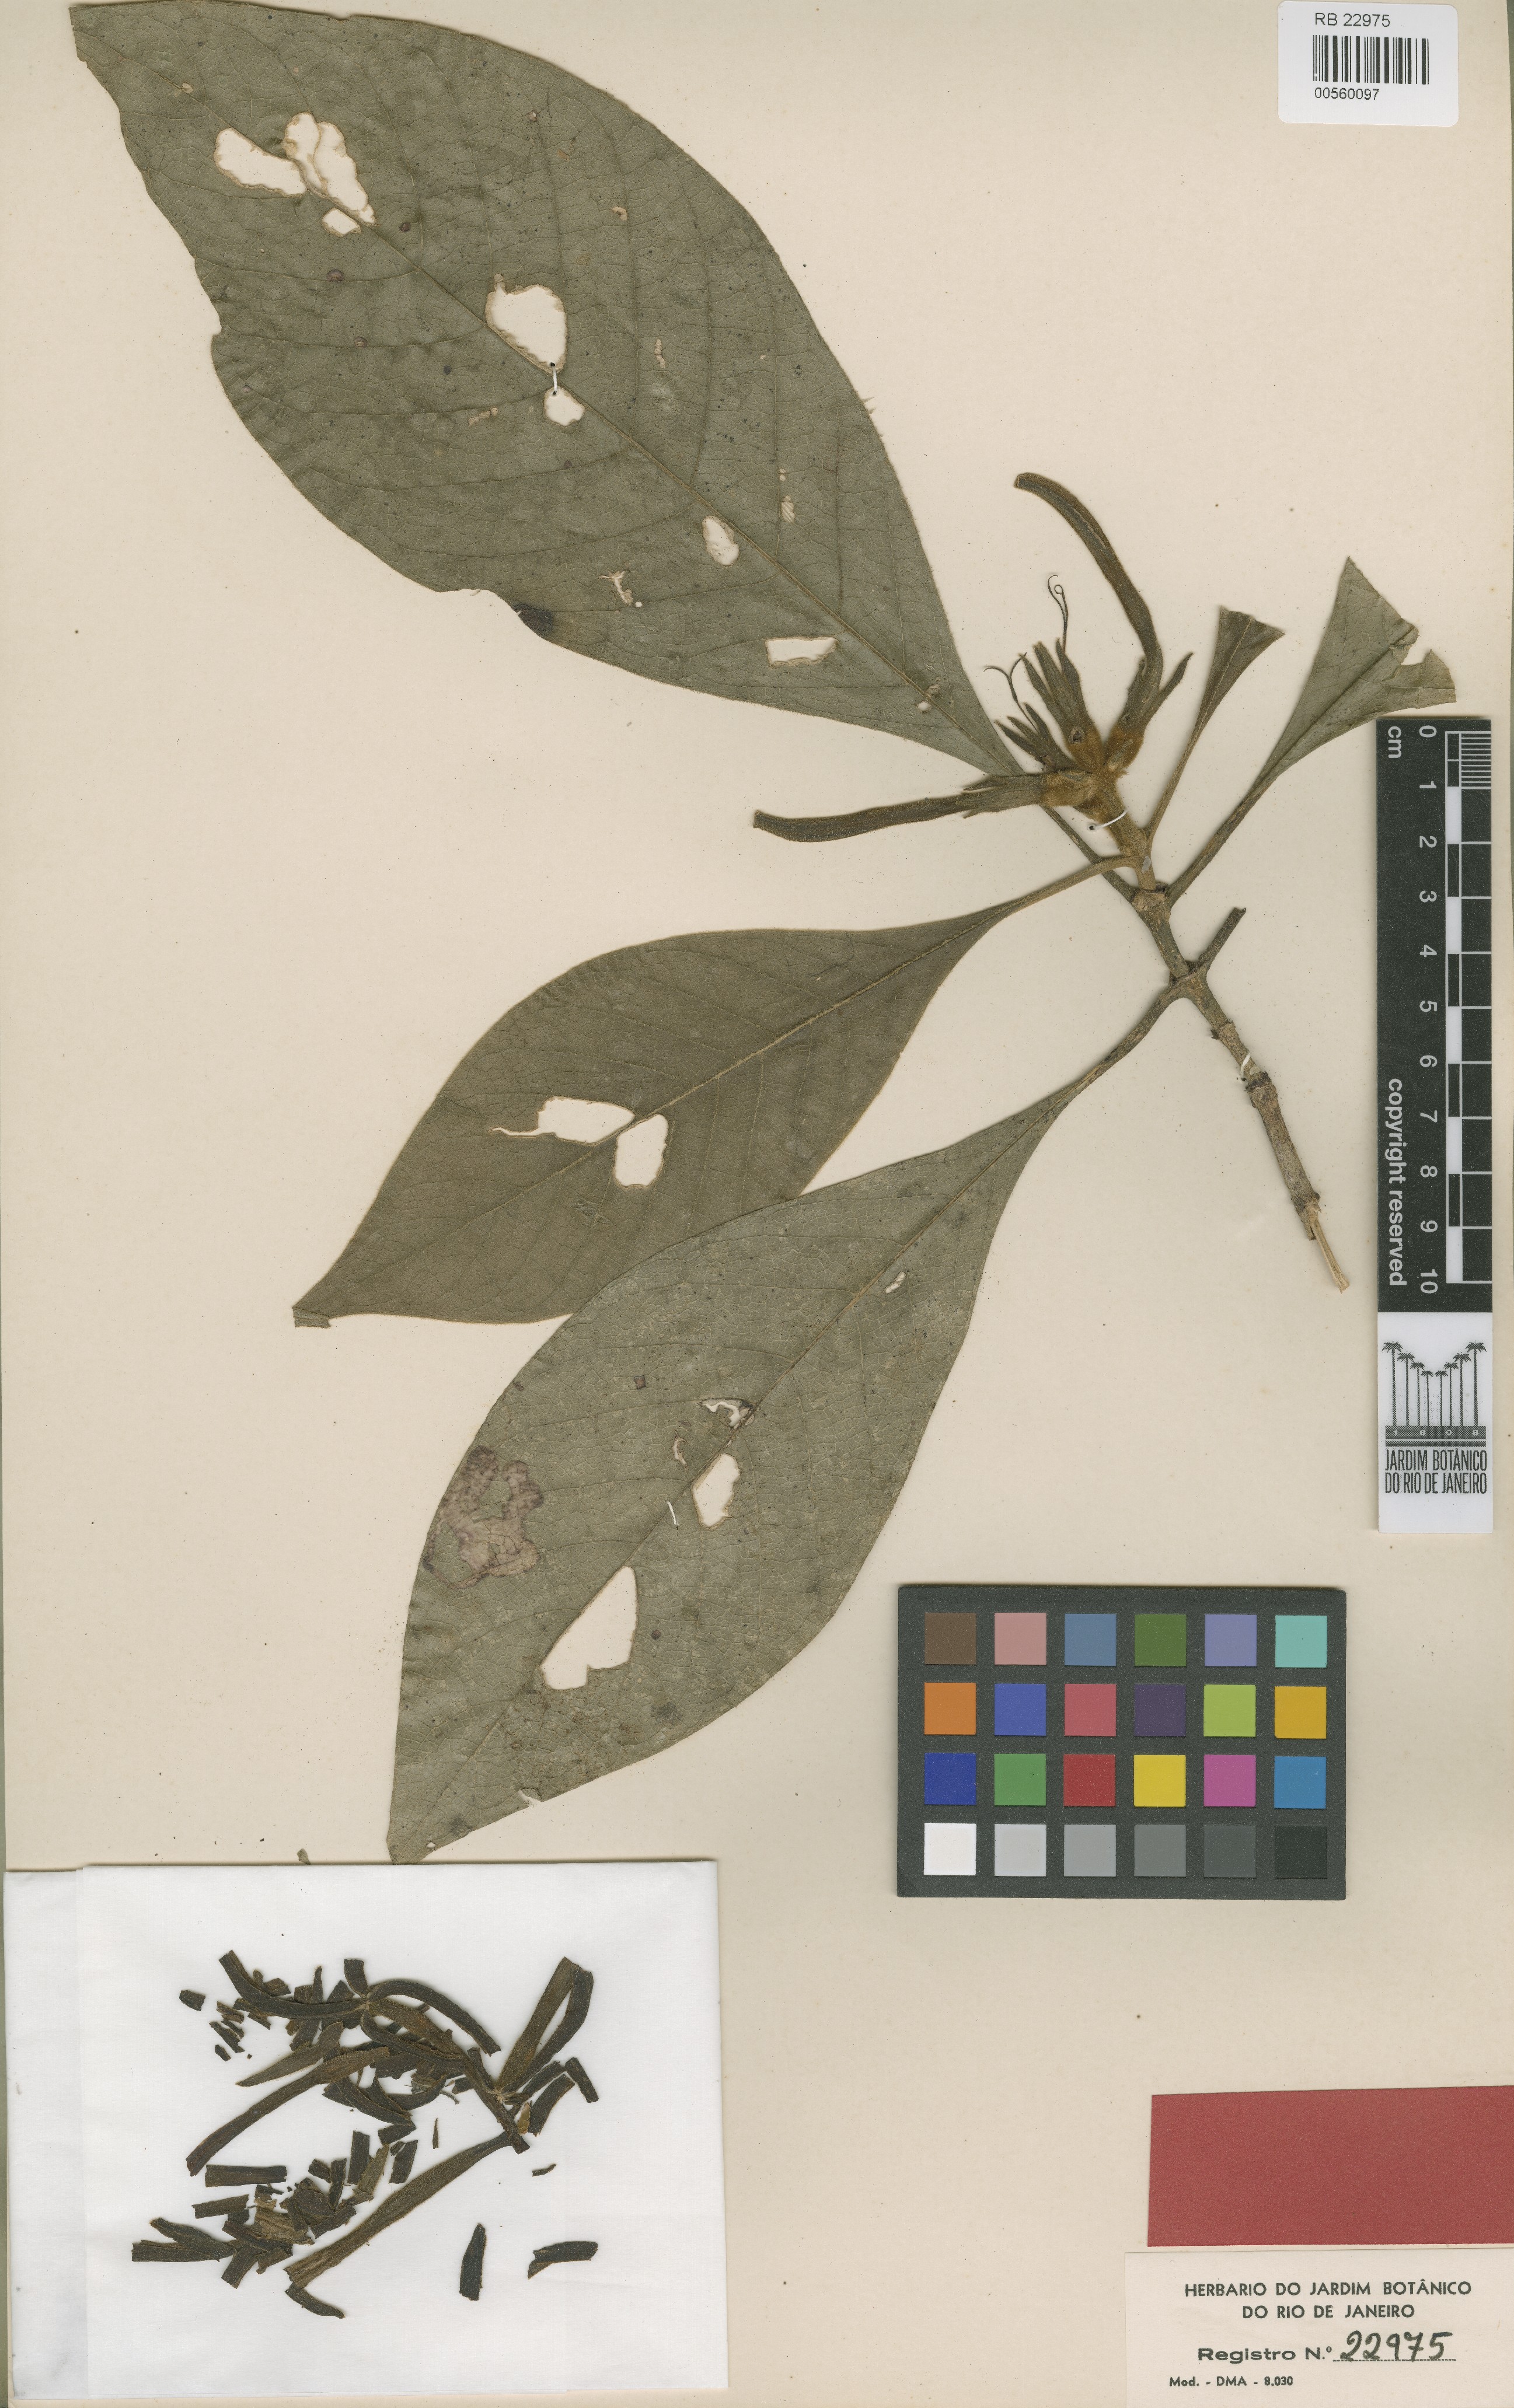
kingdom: Plantae
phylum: Tracheophyta
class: Magnoliopsida
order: Gentianales
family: Rubiaceae
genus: Coussarea
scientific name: Coussarea insignis
